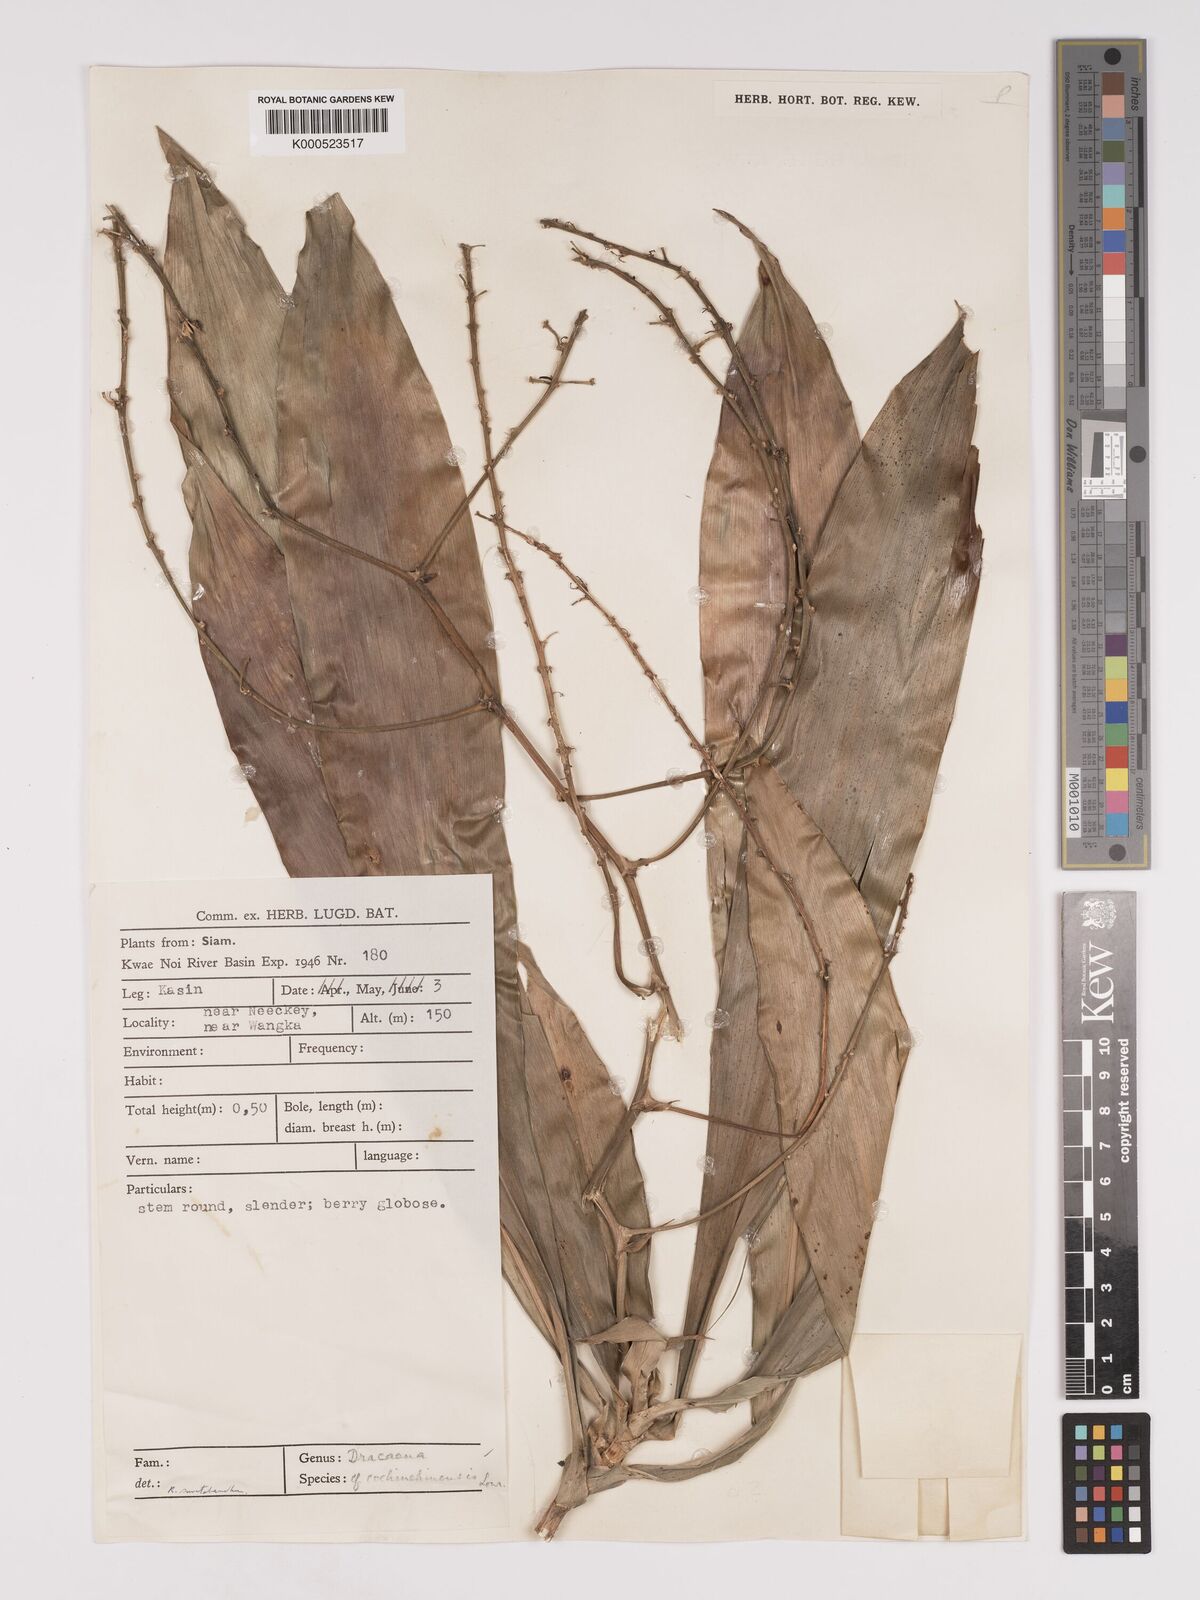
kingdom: Plantae
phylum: Tracheophyta
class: Liliopsida
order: Asparagales
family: Asparagaceae
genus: Dracaena
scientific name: Dracaena
